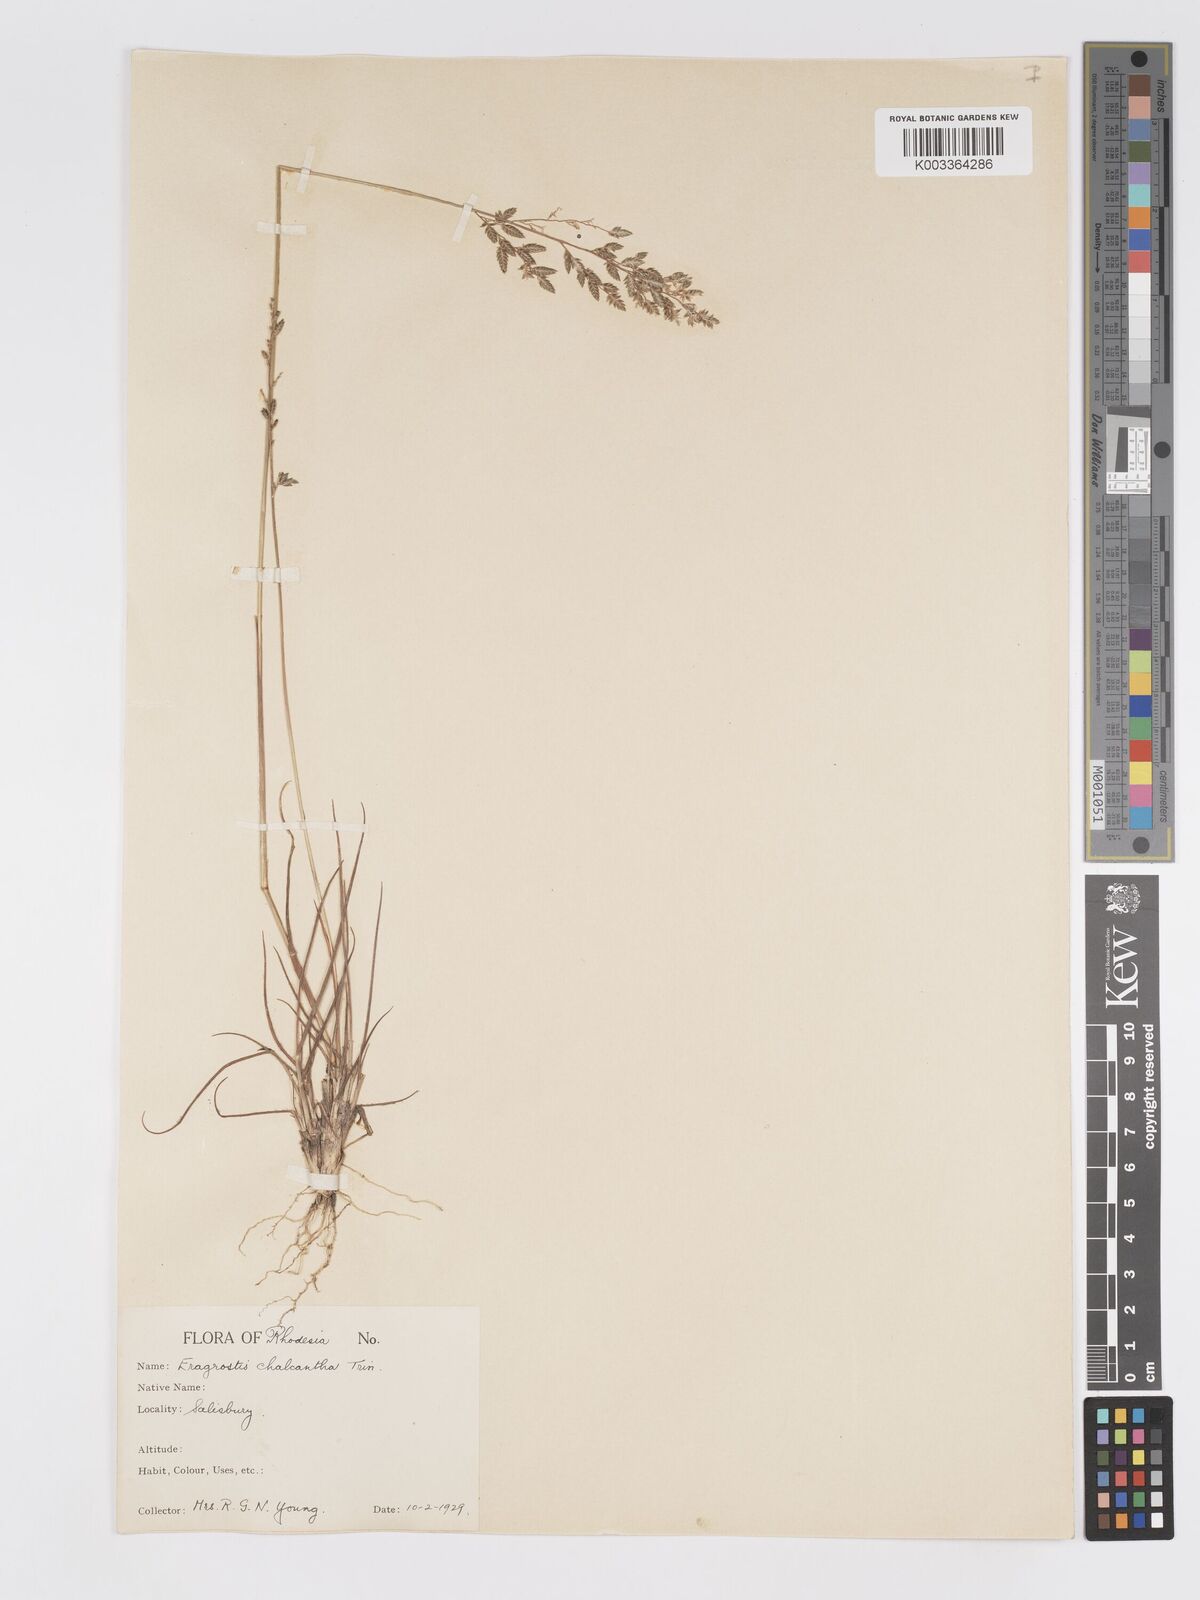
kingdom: Plantae
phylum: Tracheophyta
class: Liliopsida
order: Poales
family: Poaceae
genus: Eragrostis
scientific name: Eragrostis racemosa
